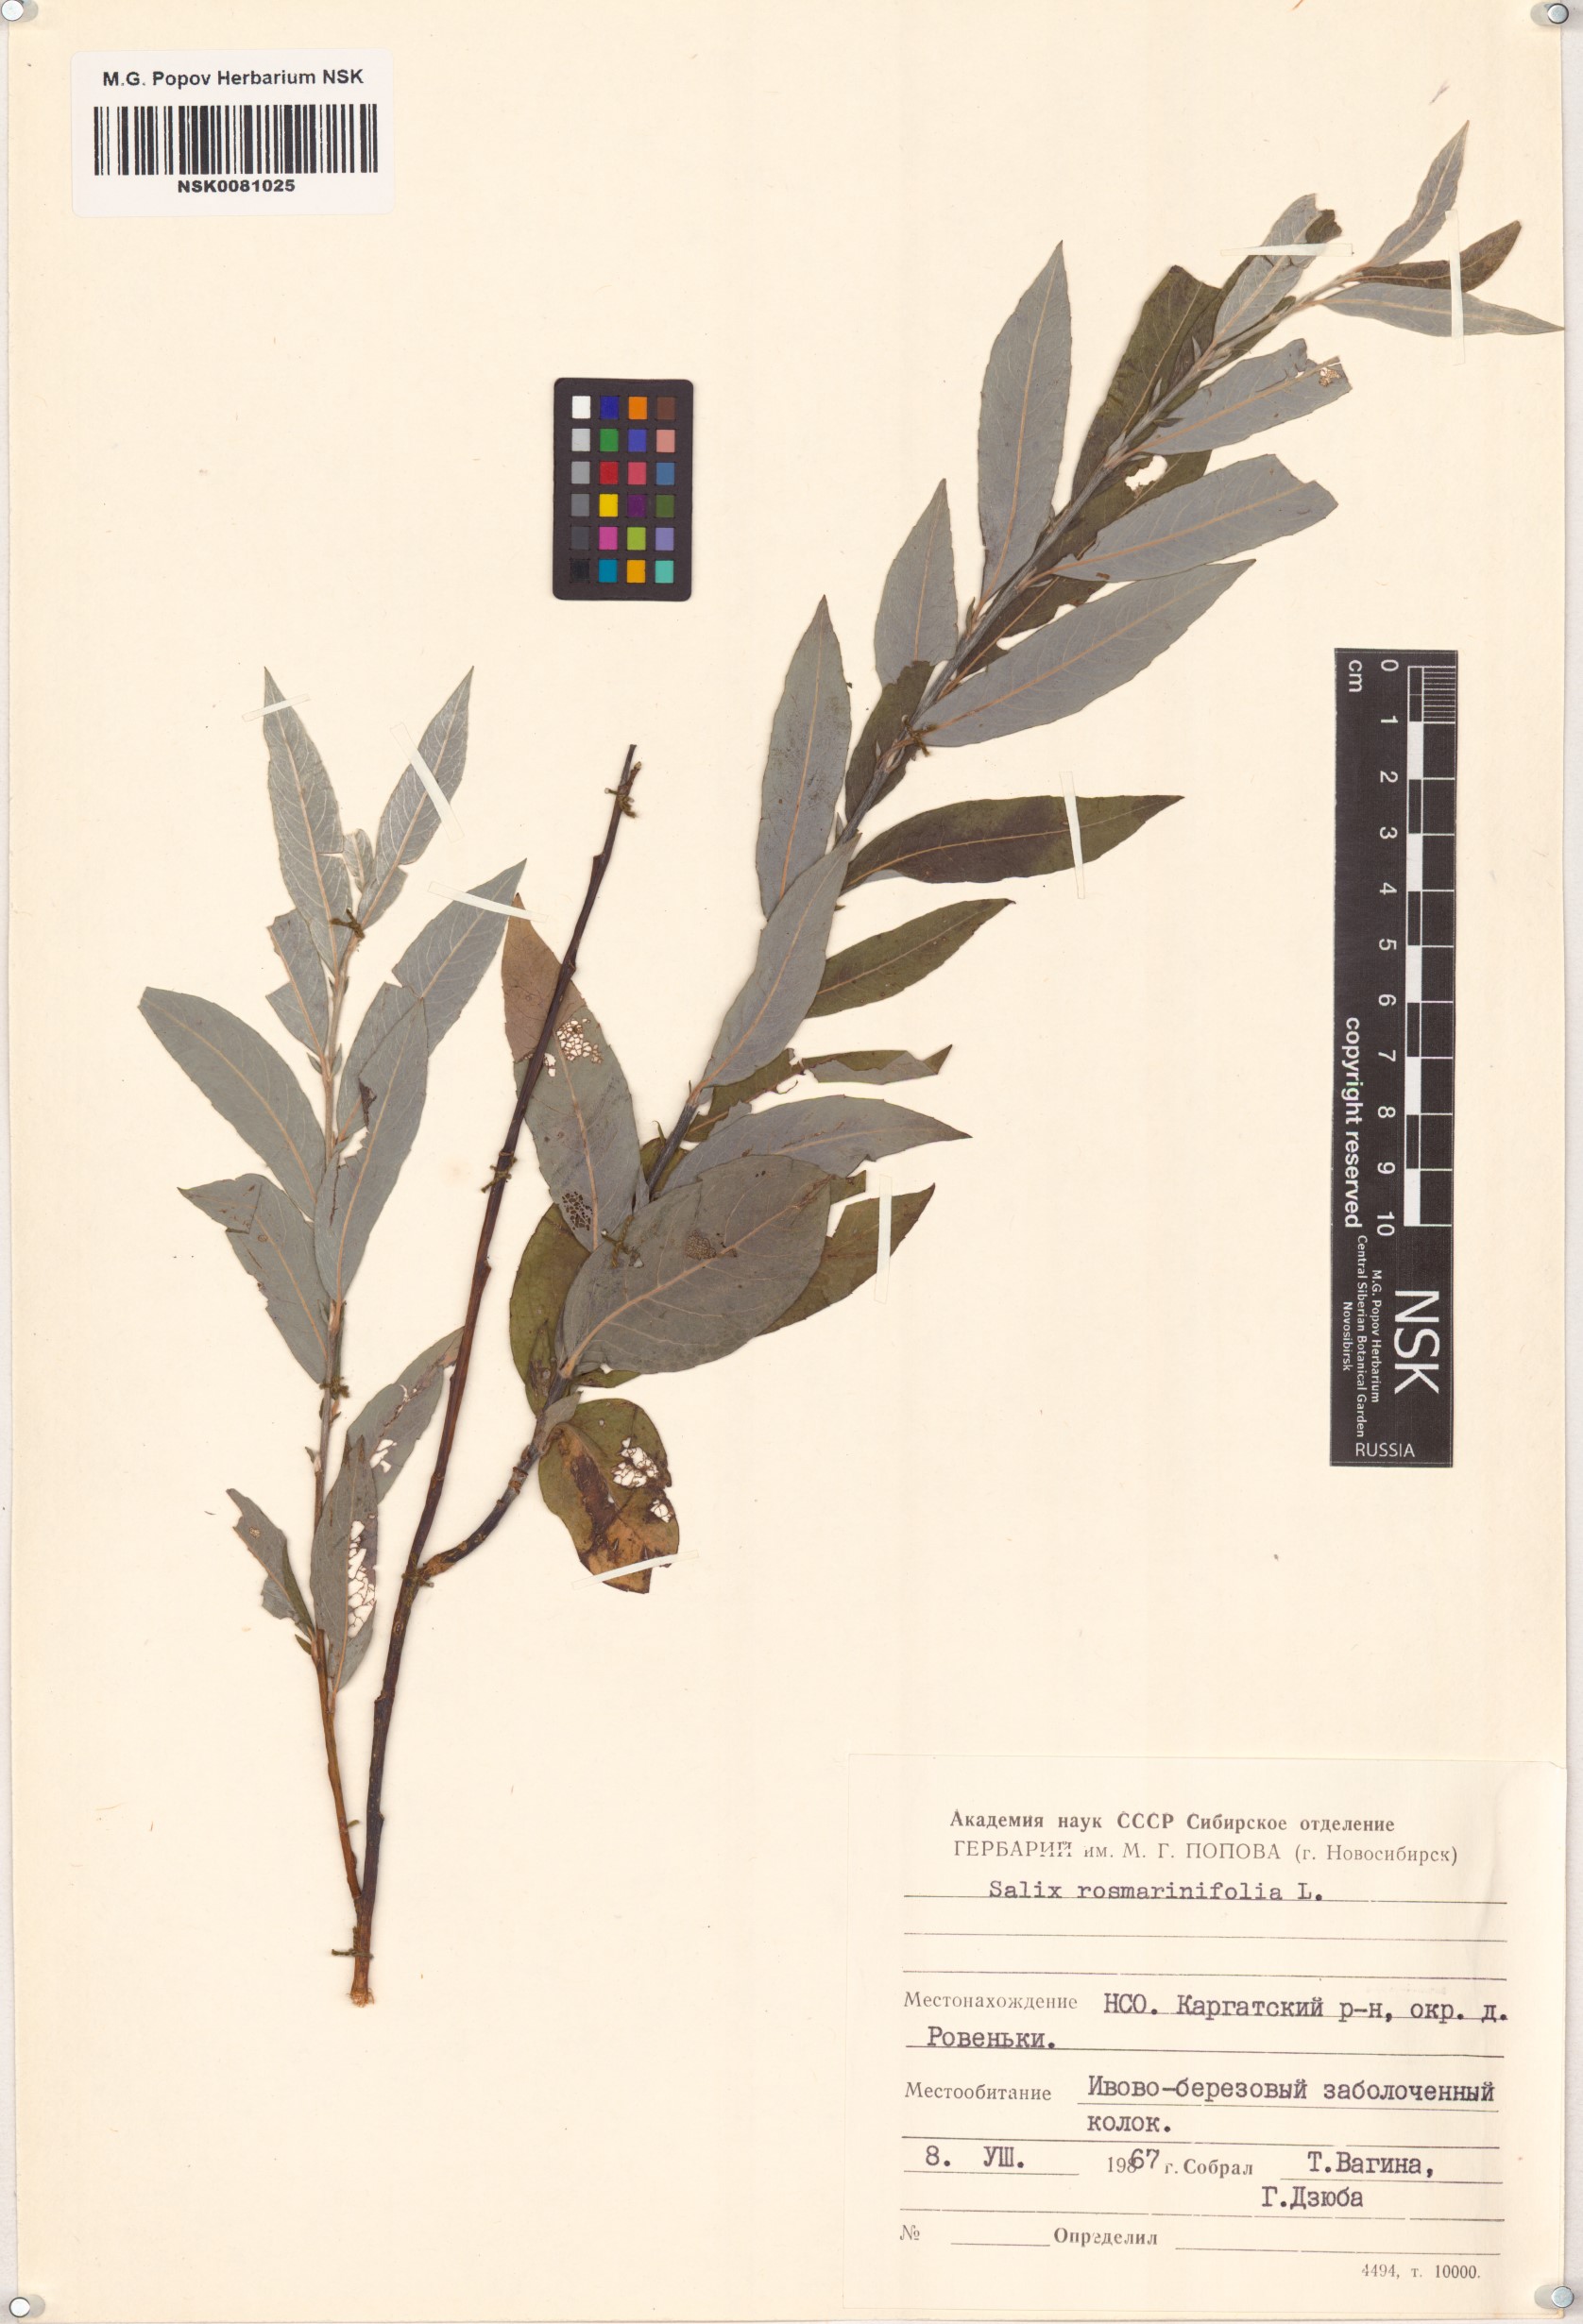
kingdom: Plantae
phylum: Tracheophyta
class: Magnoliopsida
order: Malpighiales
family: Salicaceae
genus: Salix
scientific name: Salix rosmarinifolia
